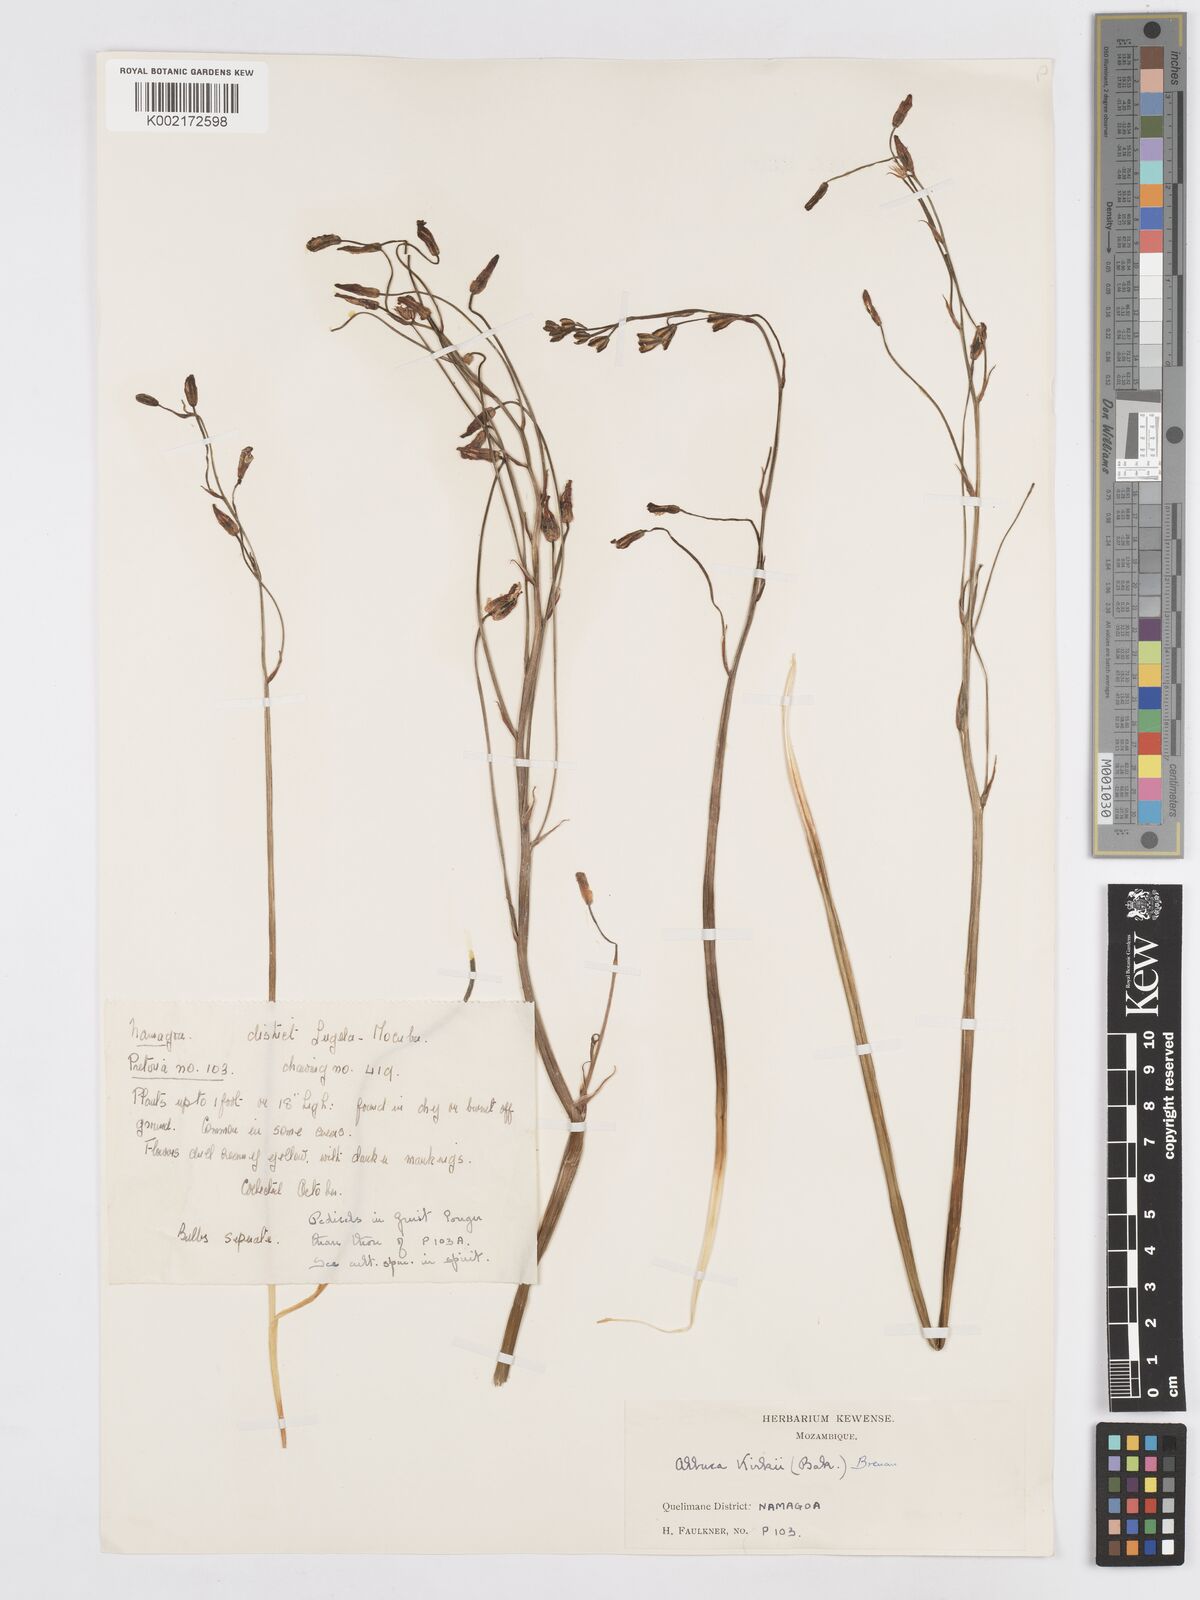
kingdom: Plantae
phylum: Tracheophyta
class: Liliopsida
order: Asparagales
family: Asparagaceae
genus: Albuca
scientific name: Albuca kirkii
